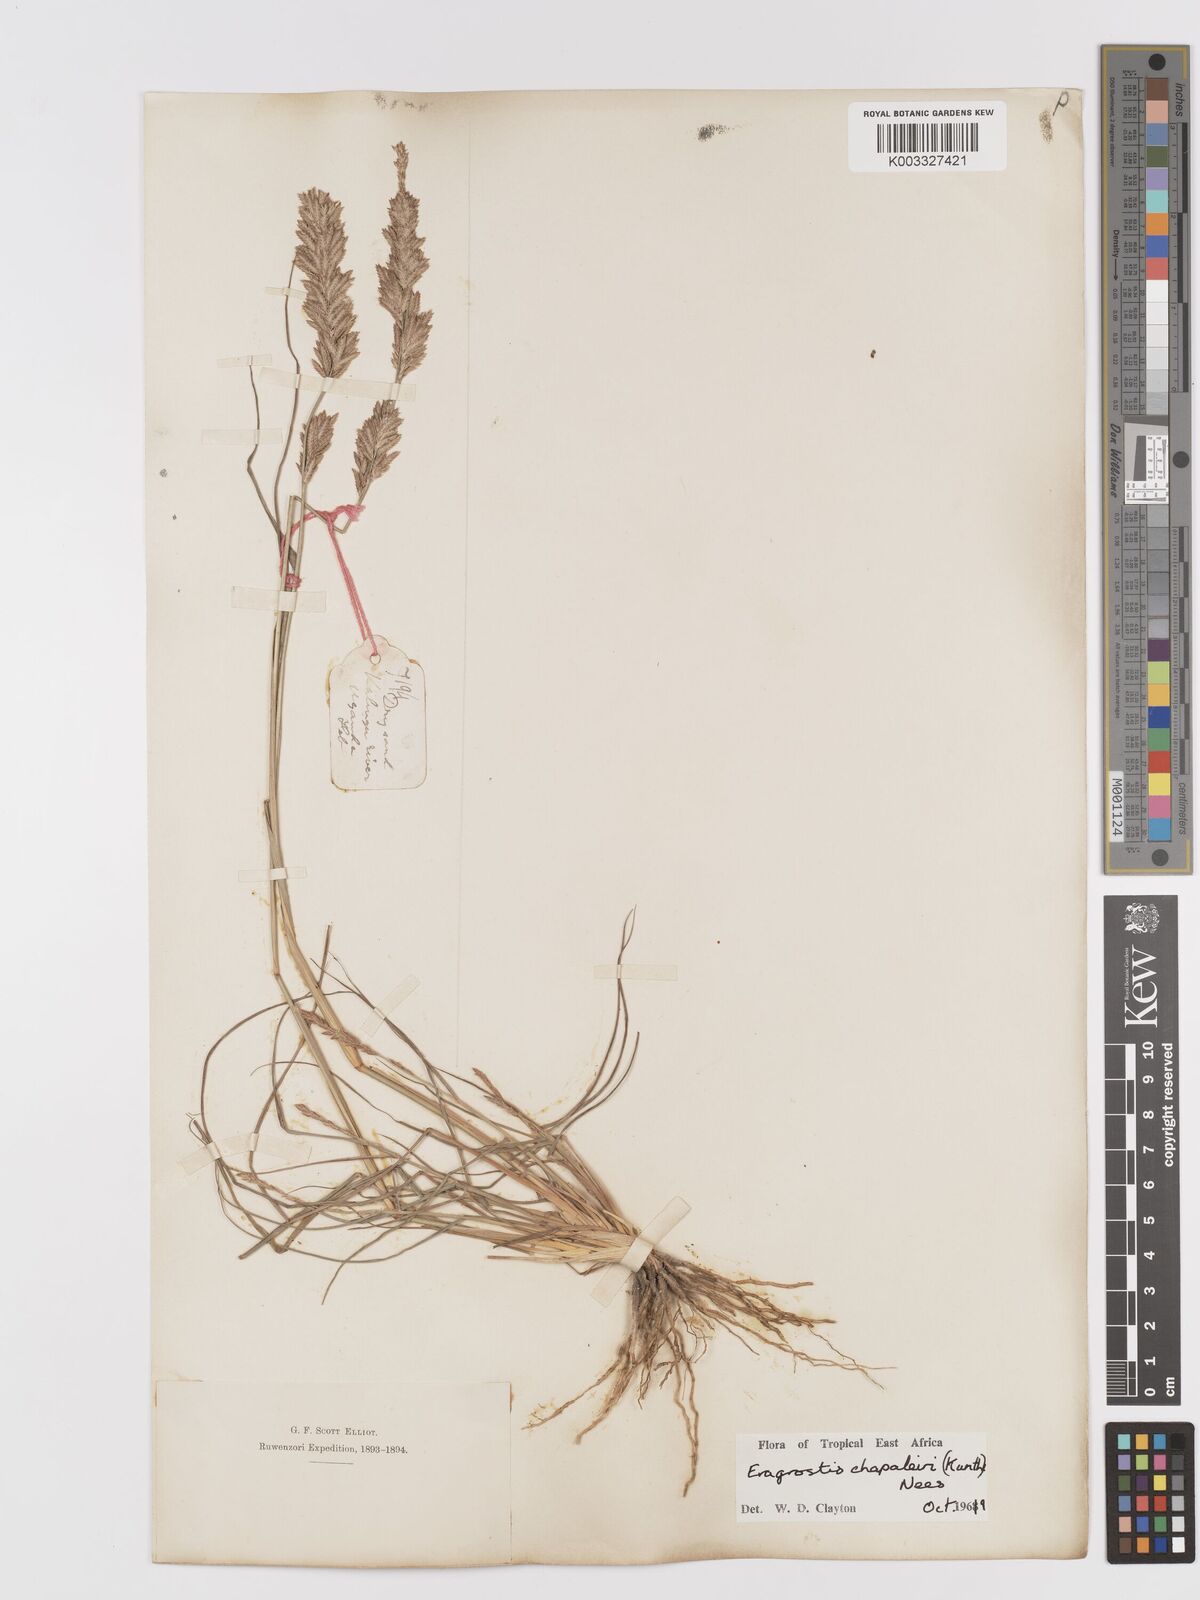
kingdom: Plantae
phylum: Tracheophyta
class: Liliopsida
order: Poales
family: Poaceae
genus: Eragrostis
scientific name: Eragrostis chapelieri
